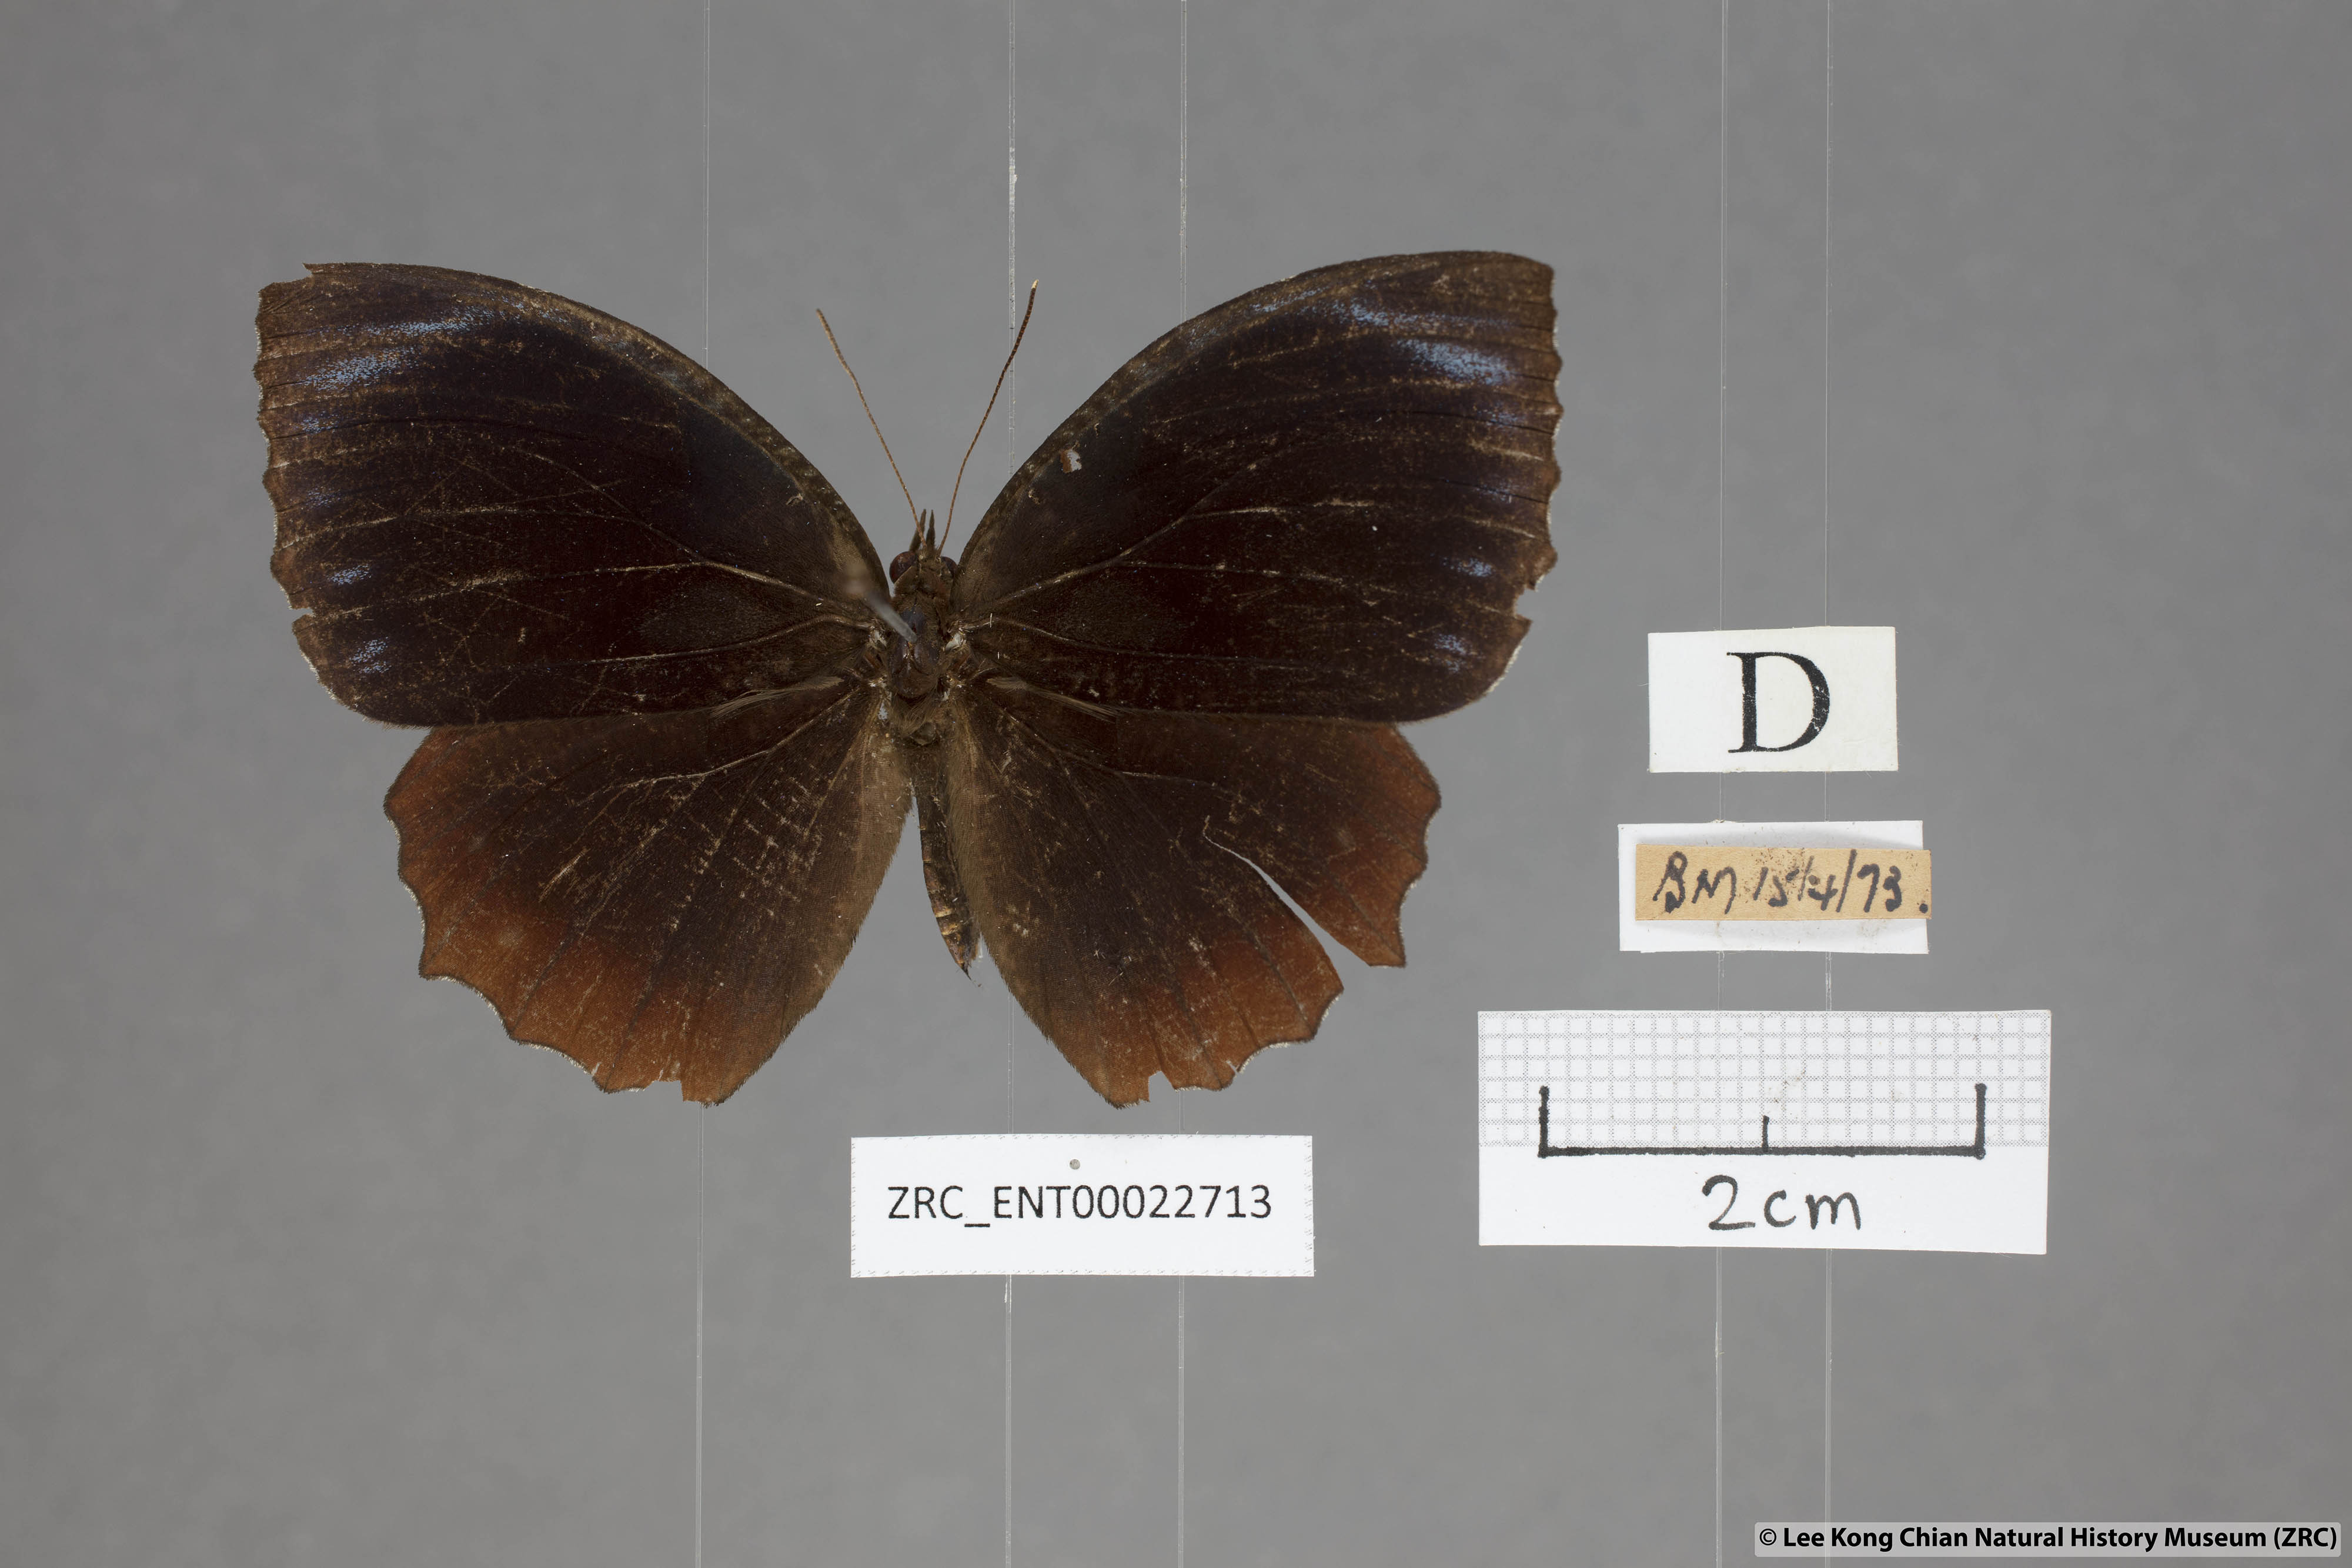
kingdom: Animalia
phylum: Arthropoda
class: Insecta
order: Lepidoptera
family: Nymphalidae
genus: Elymnias
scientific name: Elymnias hypermnestra
